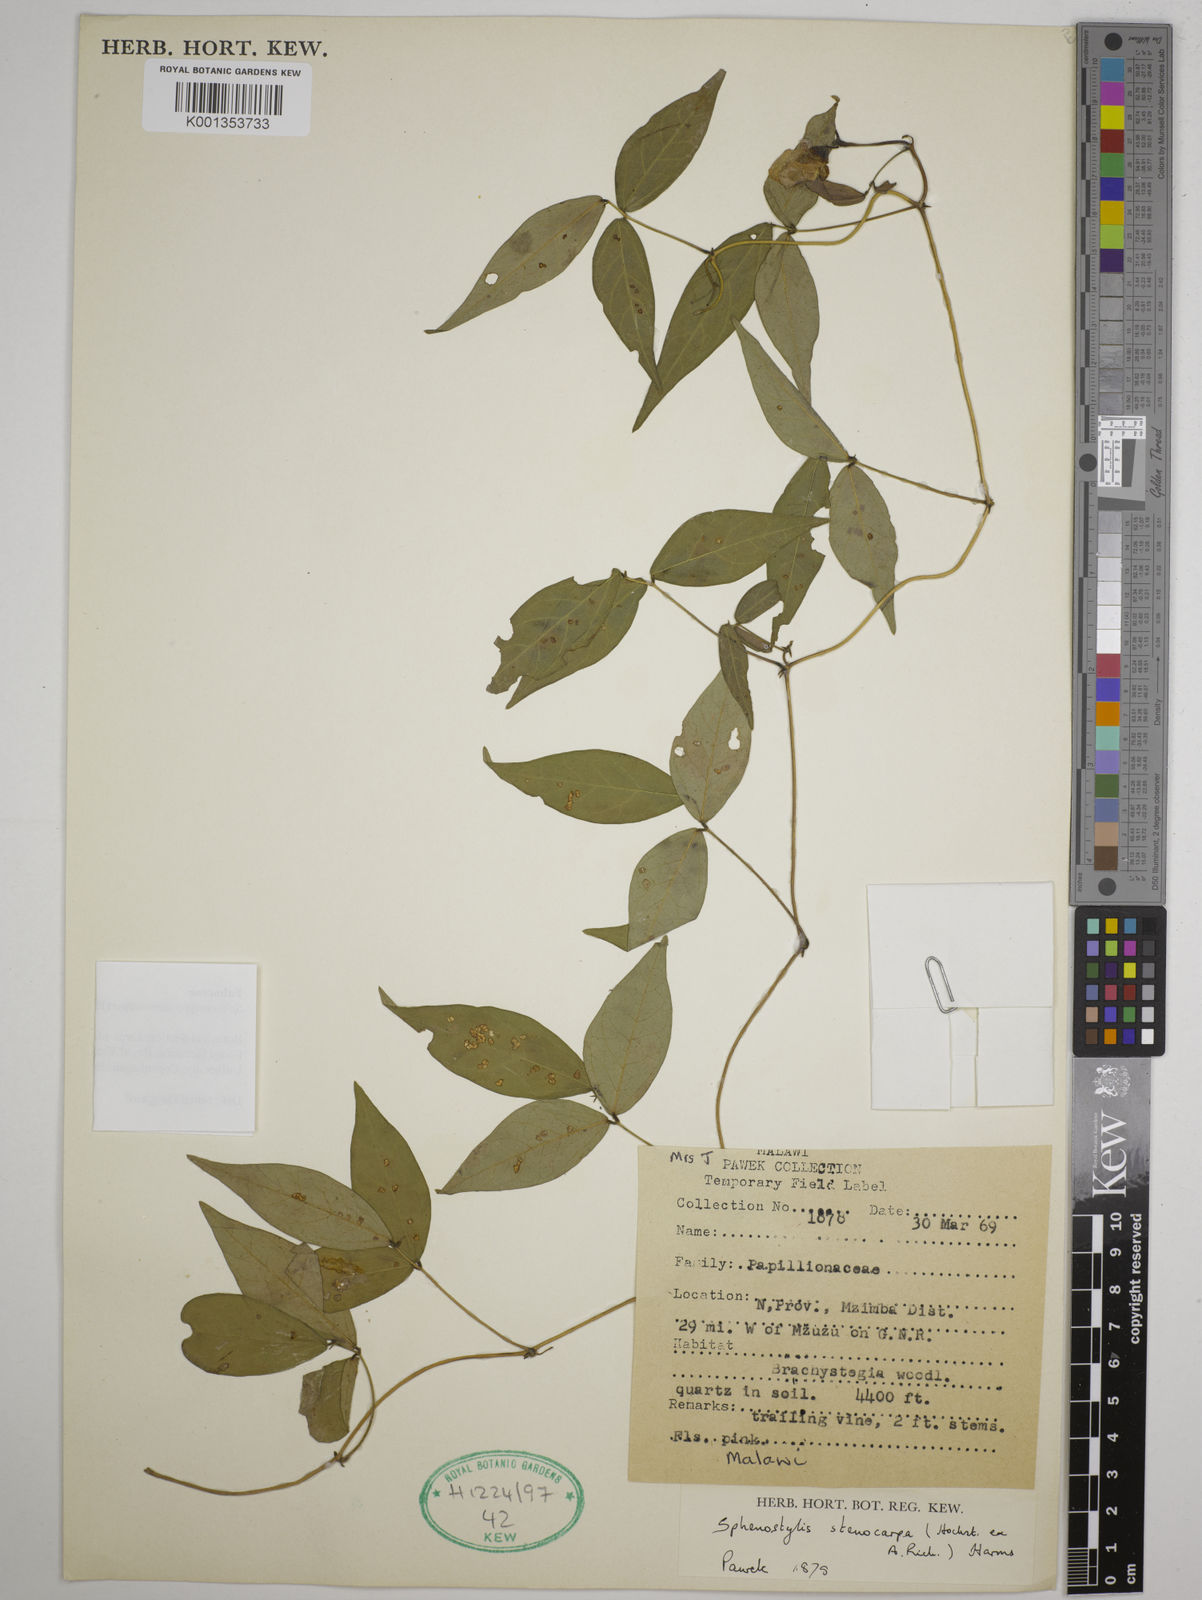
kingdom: Plantae
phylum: Tracheophyta
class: Magnoliopsida
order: Fabales
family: Fabaceae
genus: Sphenostylis
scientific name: Sphenostylis stenocarpa
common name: Yam-pea
